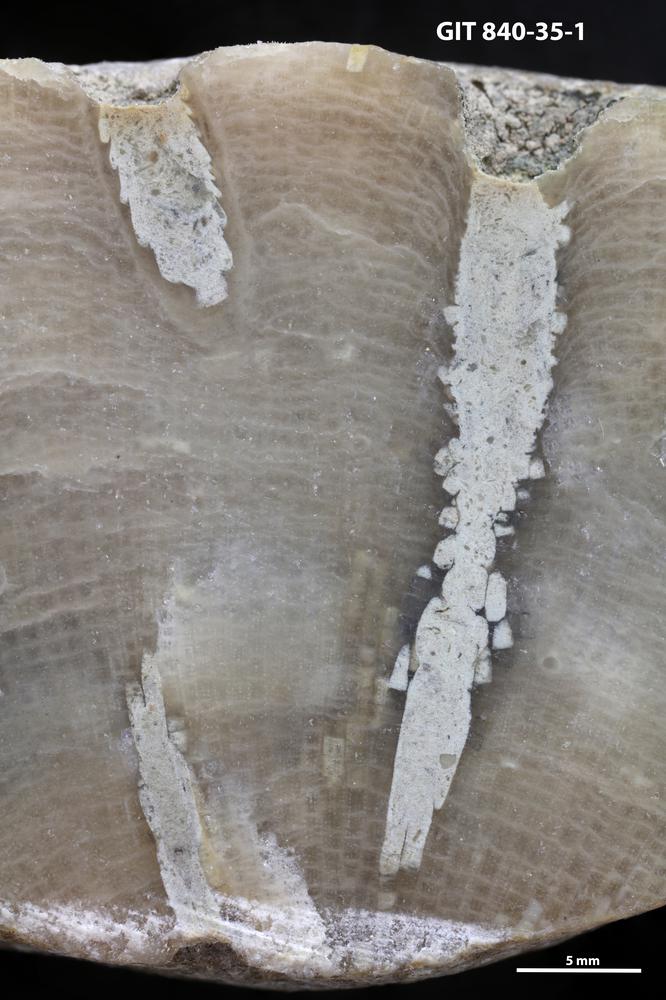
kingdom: Animalia
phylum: Annelida
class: Polychaeta
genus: Chaetosalpinx
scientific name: Chaetosalpinx
